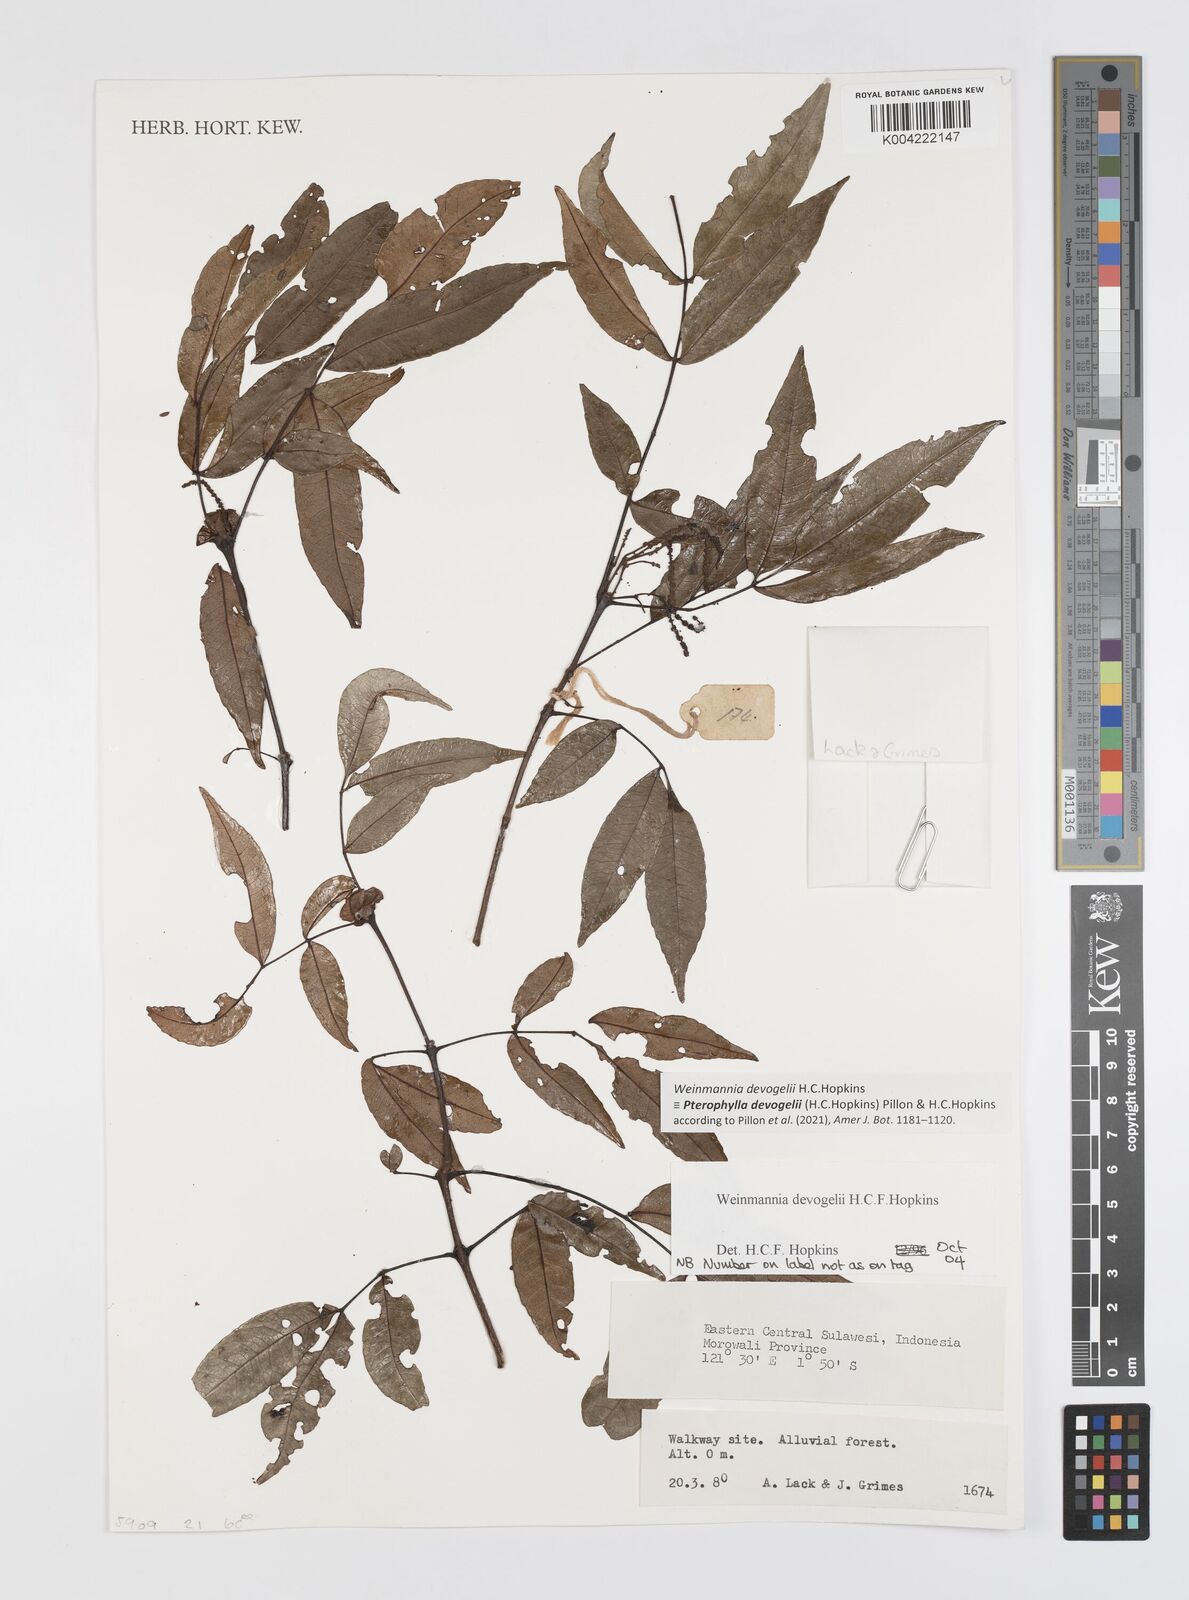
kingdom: Plantae
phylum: Tracheophyta
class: Magnoliopsida
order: Oxalidales
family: Cunoniaceae
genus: Pterophylla
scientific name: Pterophylla devogelii
